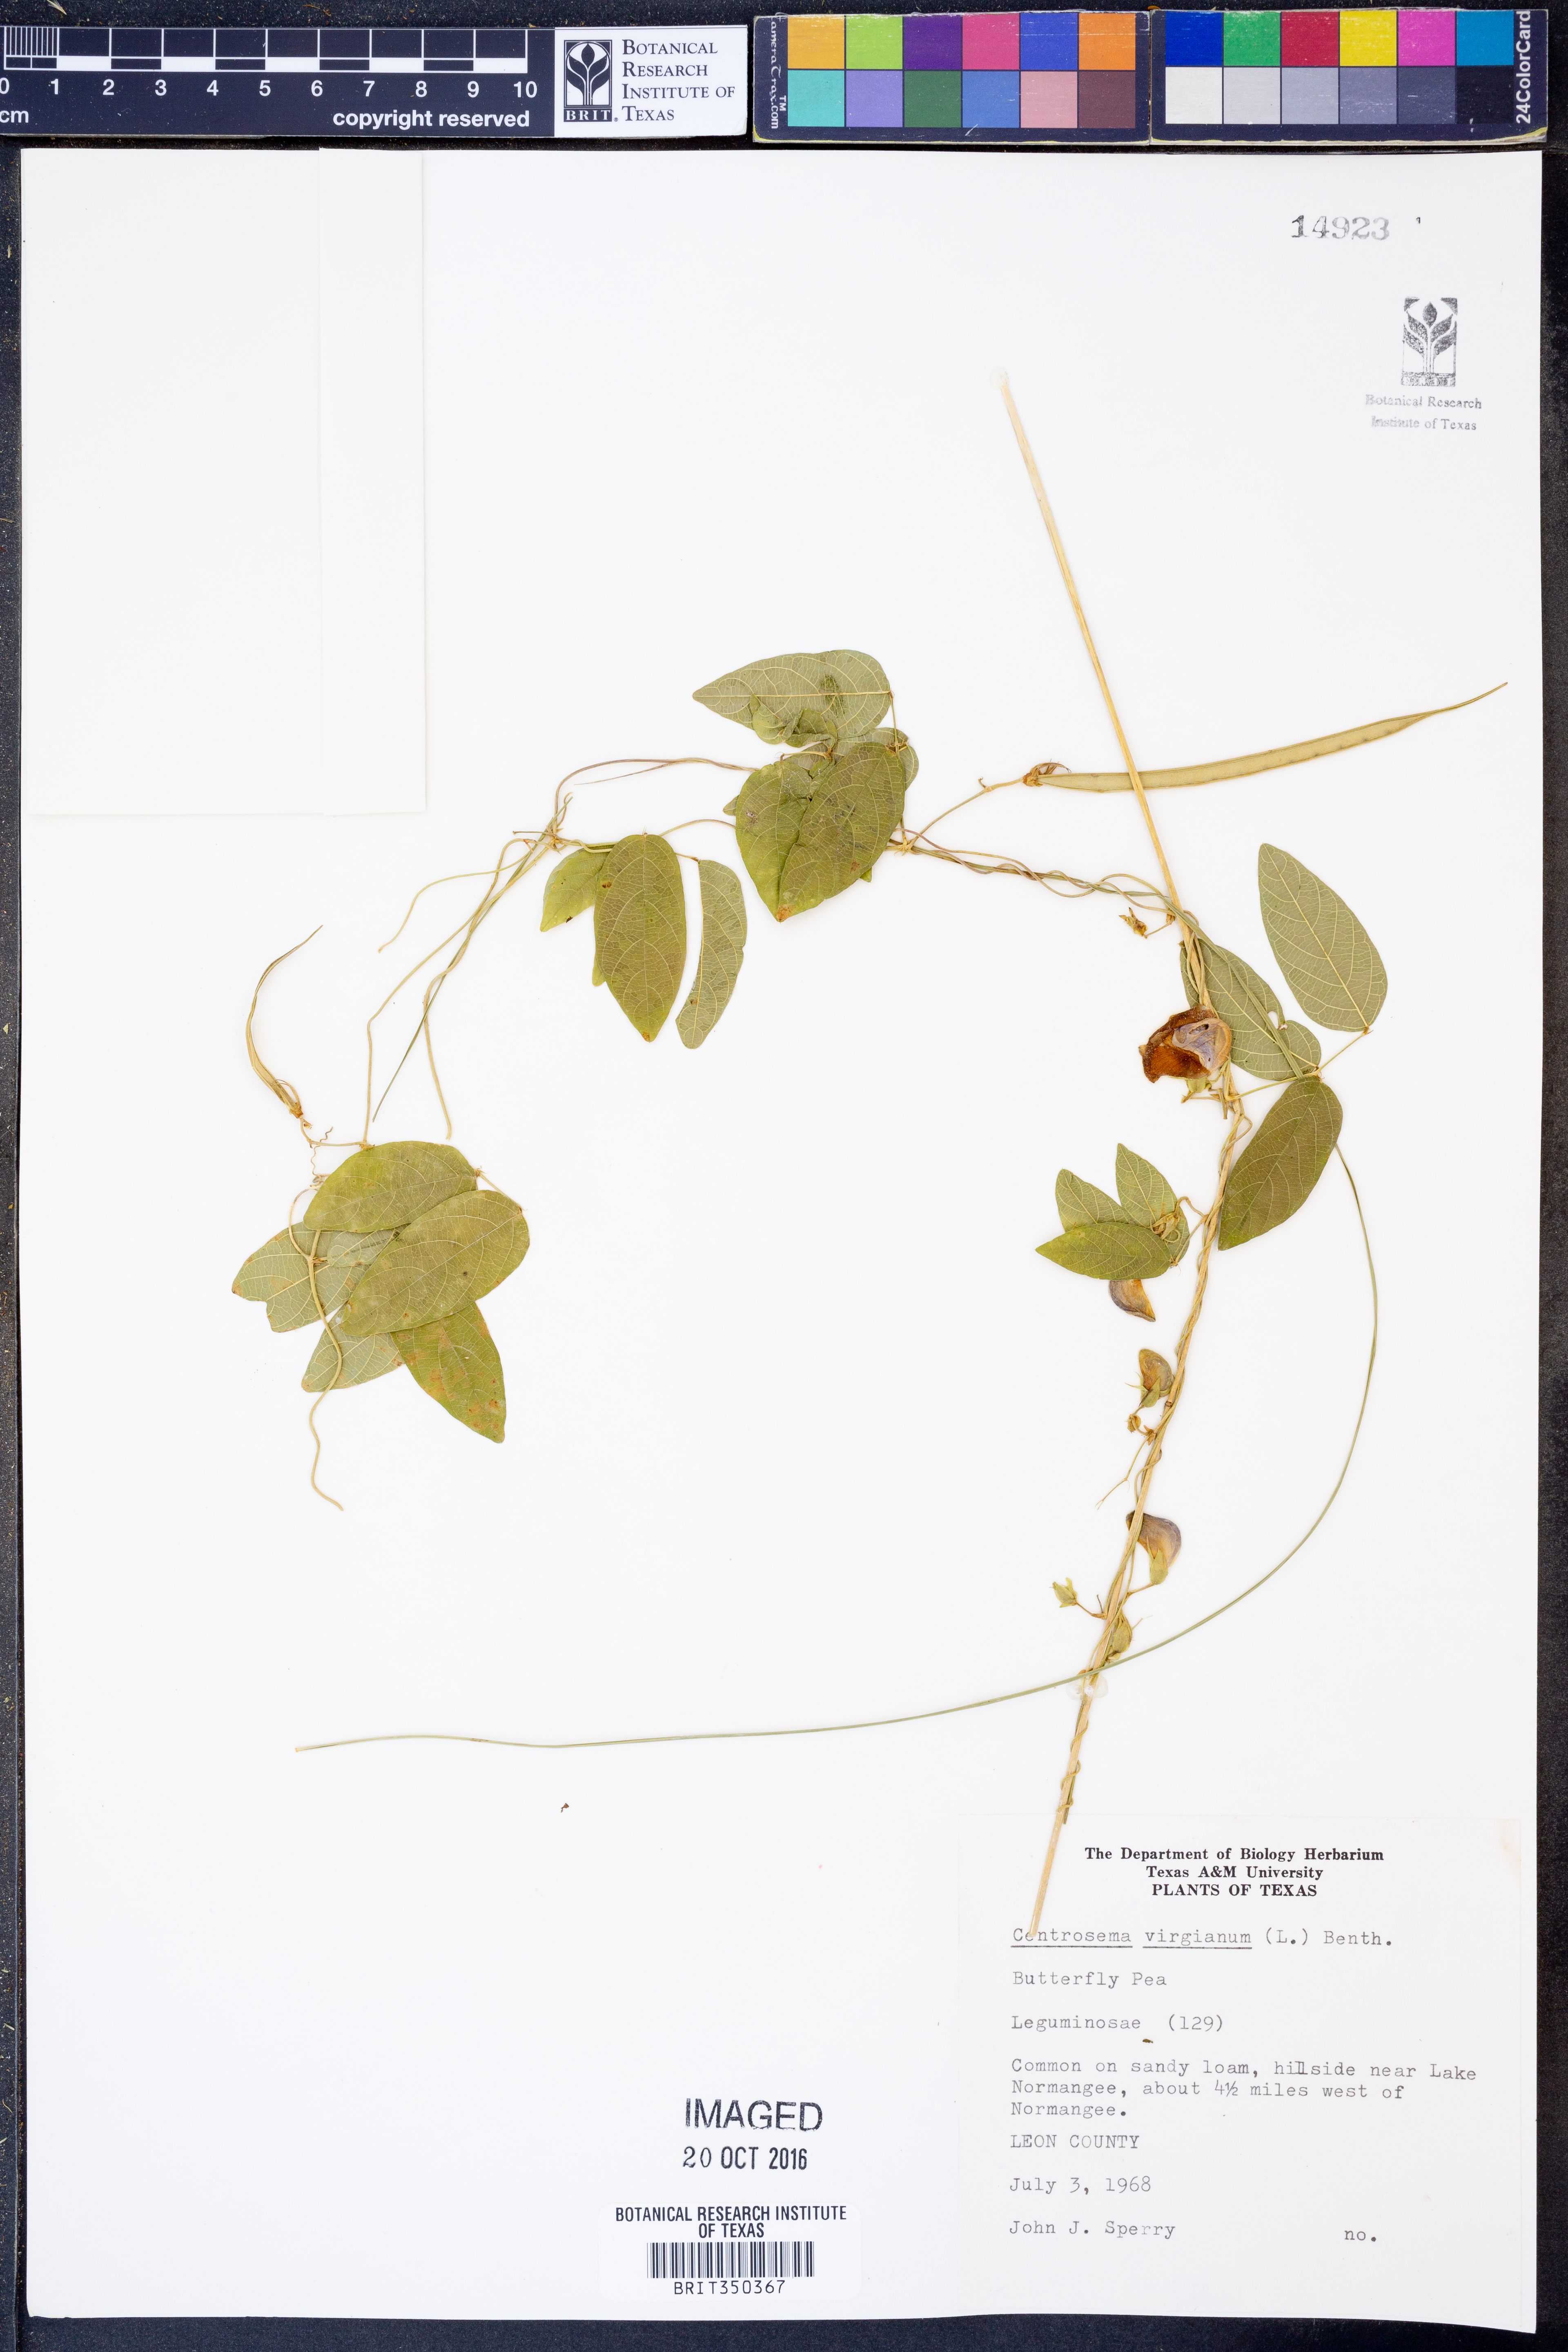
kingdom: Plantae
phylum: Tracheophyta
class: Magnoliopsida
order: Fabales
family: Fabaceae
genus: Centrosema
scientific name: Centrosema virginianum
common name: Butterfly-pea
